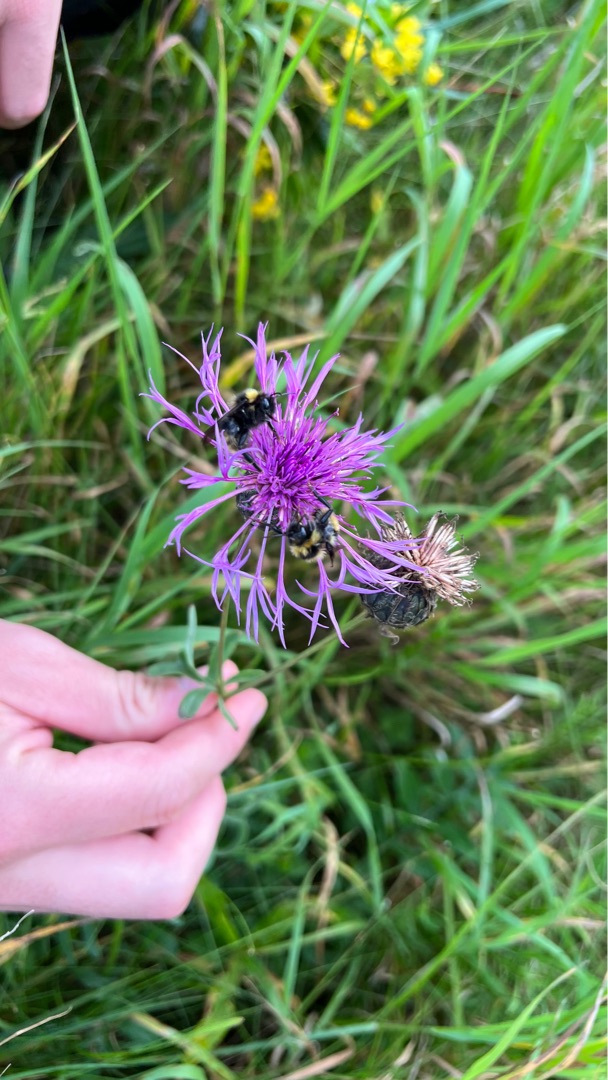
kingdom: Plantae
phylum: Tracheophyta
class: Magnoliopsida
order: Asterales
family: Asteraceae
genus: Centaurea
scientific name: Centaurea scabiosa
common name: Stor knopurt
